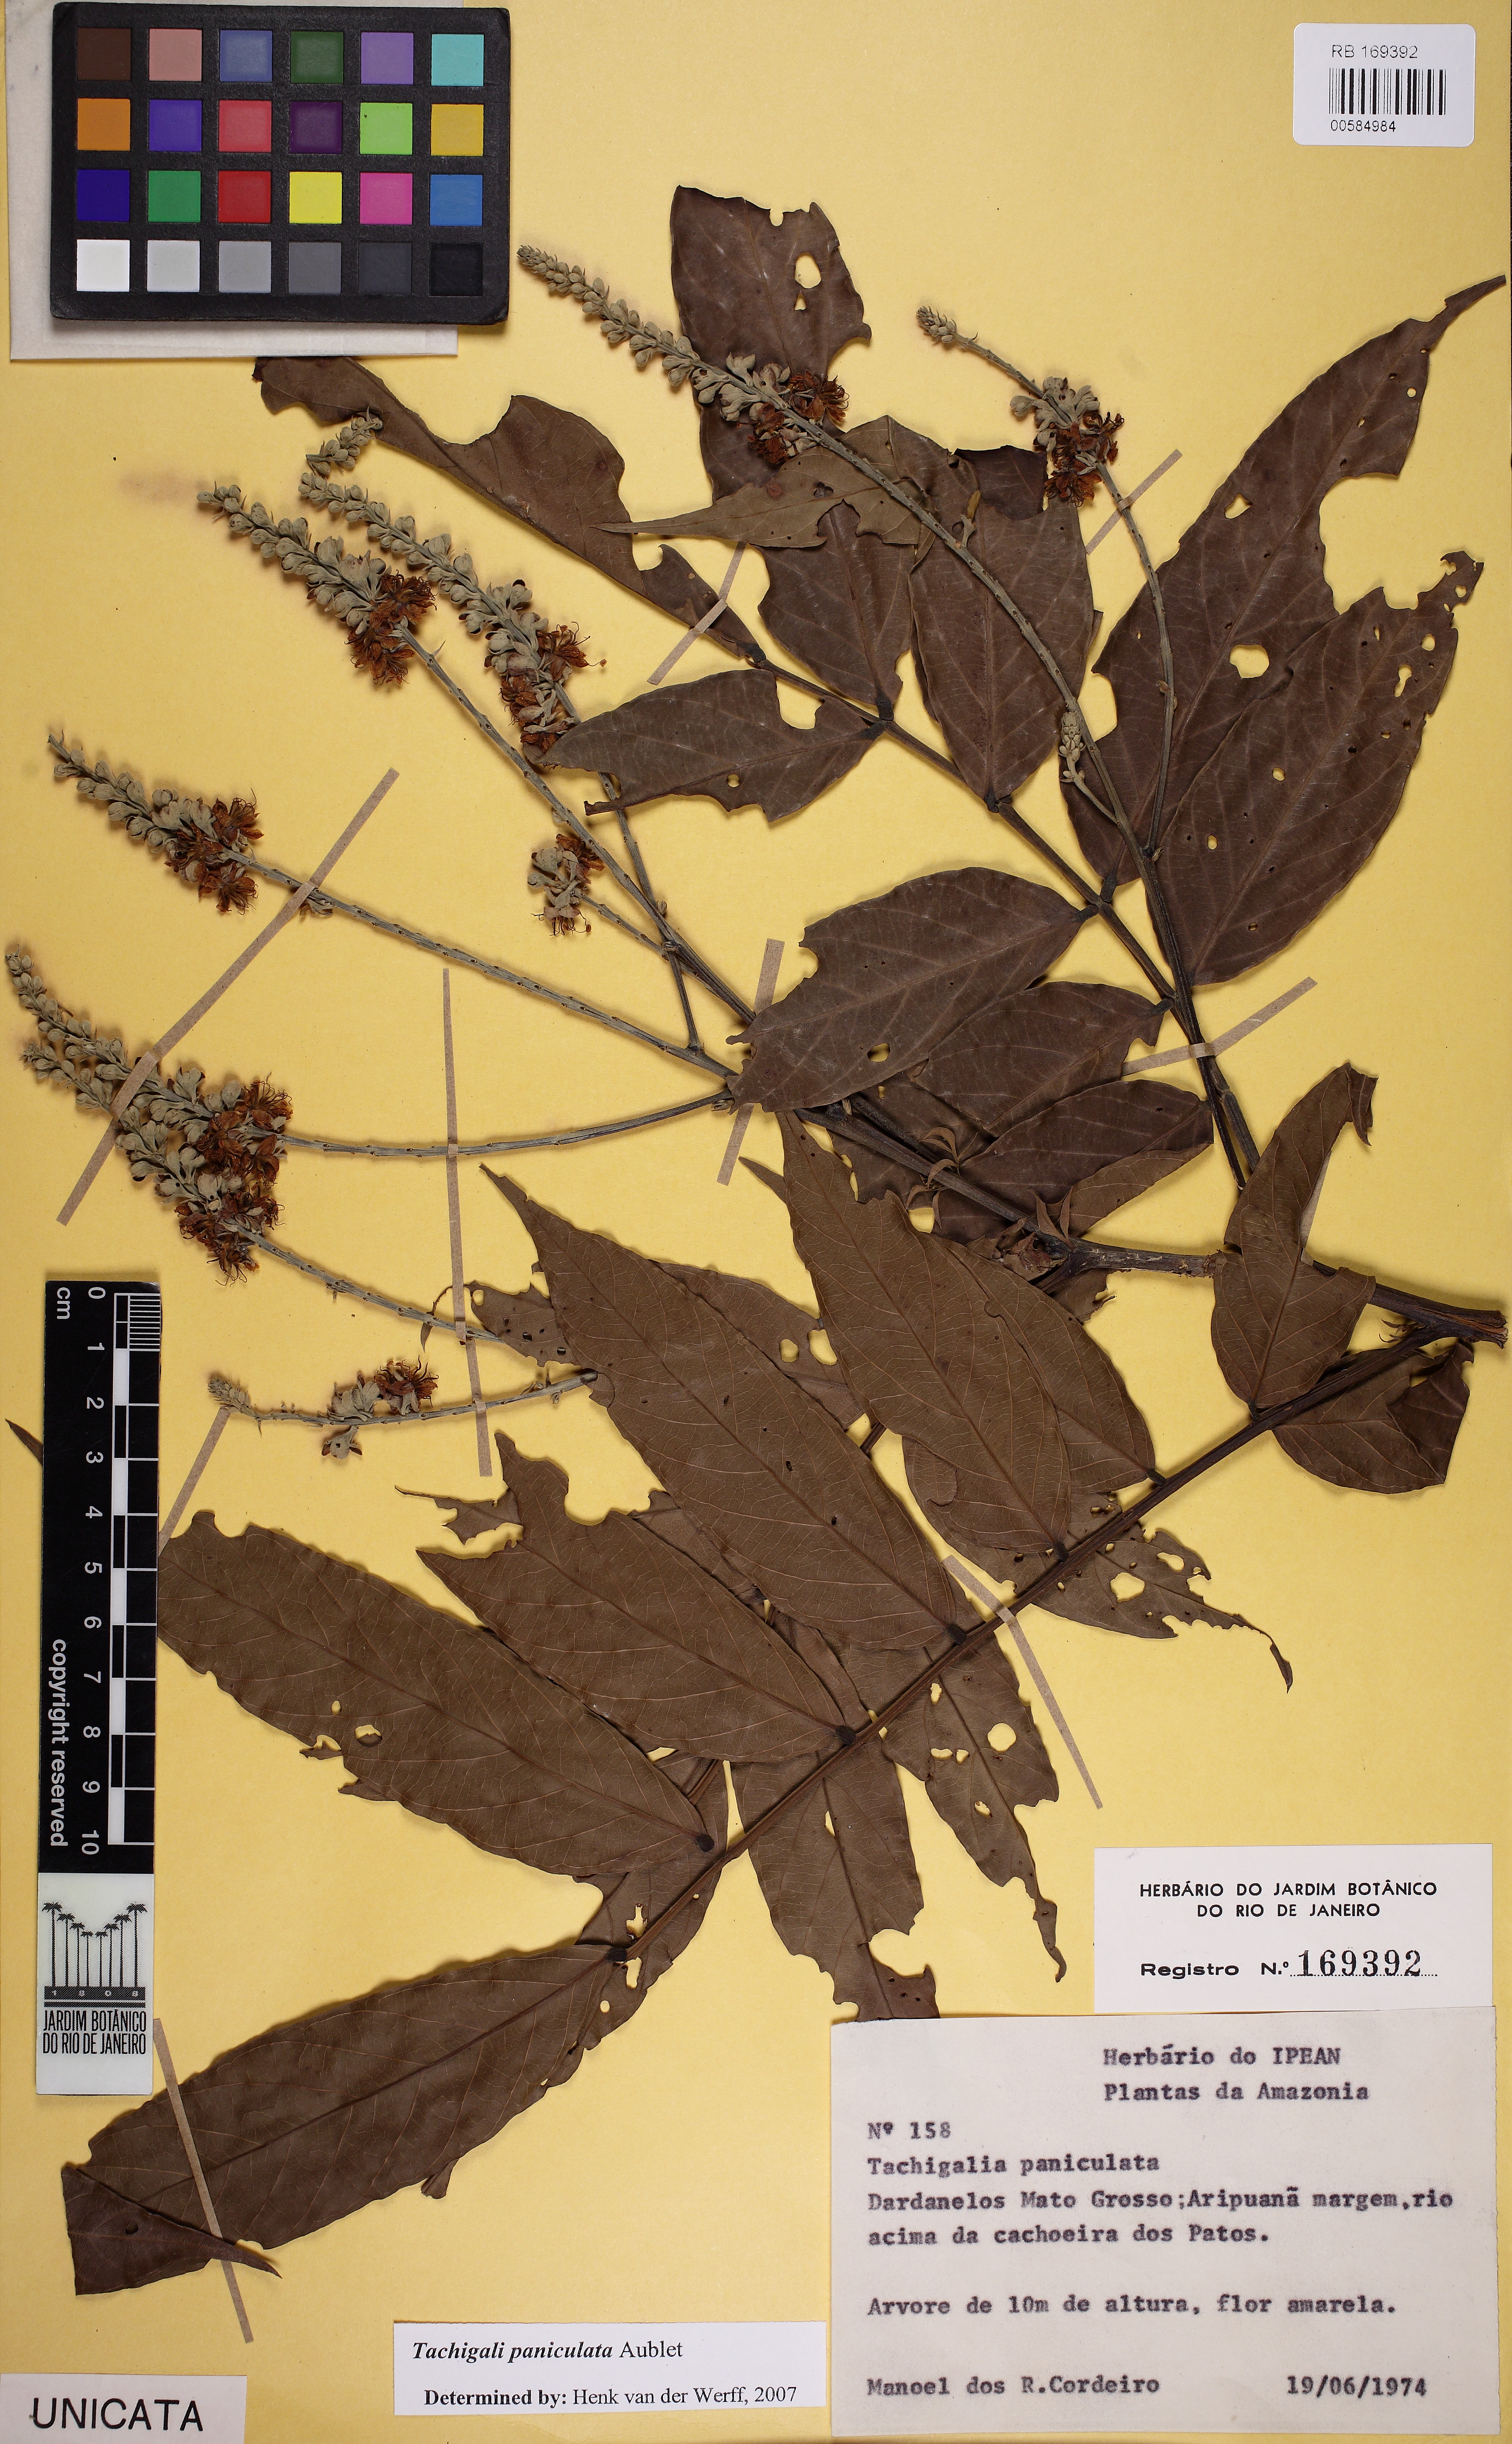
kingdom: Plantae
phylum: Tracheophyta
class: Magnoliopsida
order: Fabales
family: Fabaceae
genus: Tachigali
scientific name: Tachigali paniculata
